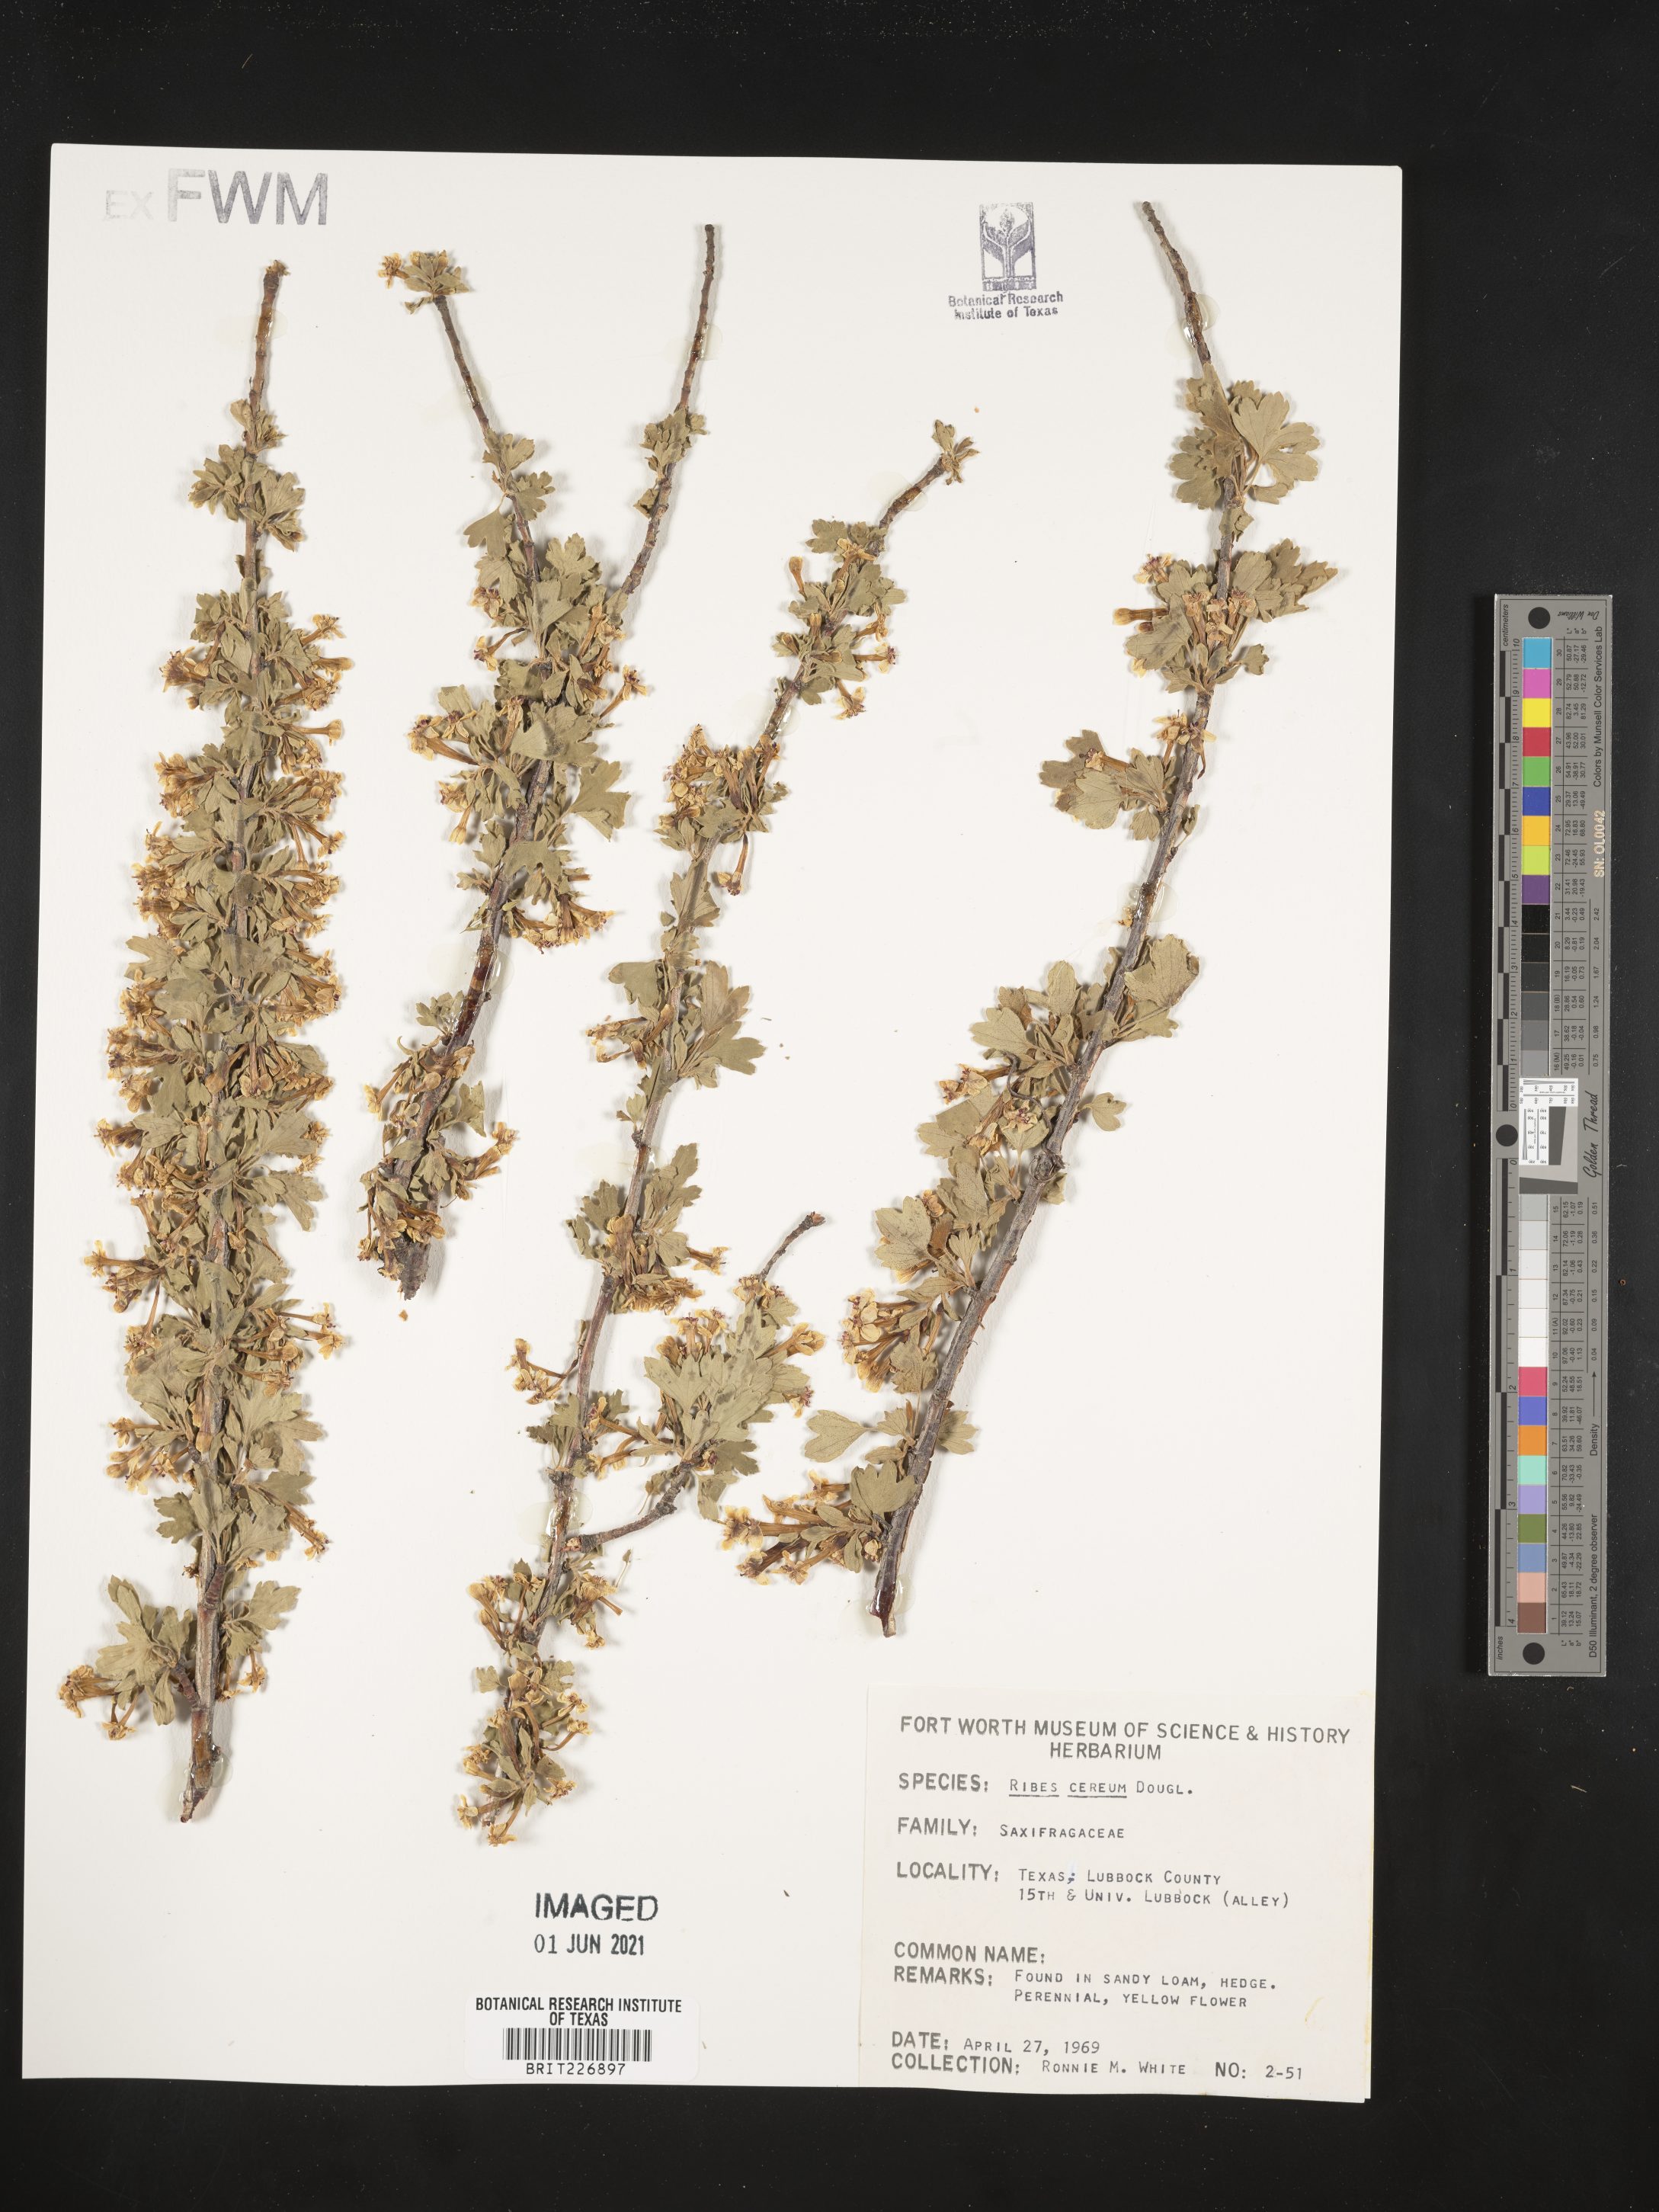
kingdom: Plantae
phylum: Tracheophyta
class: Magnoliopsida
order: Saxifragales
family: Grossulariaceae
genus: Ribes
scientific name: Ribes cereum
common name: Wax currant
